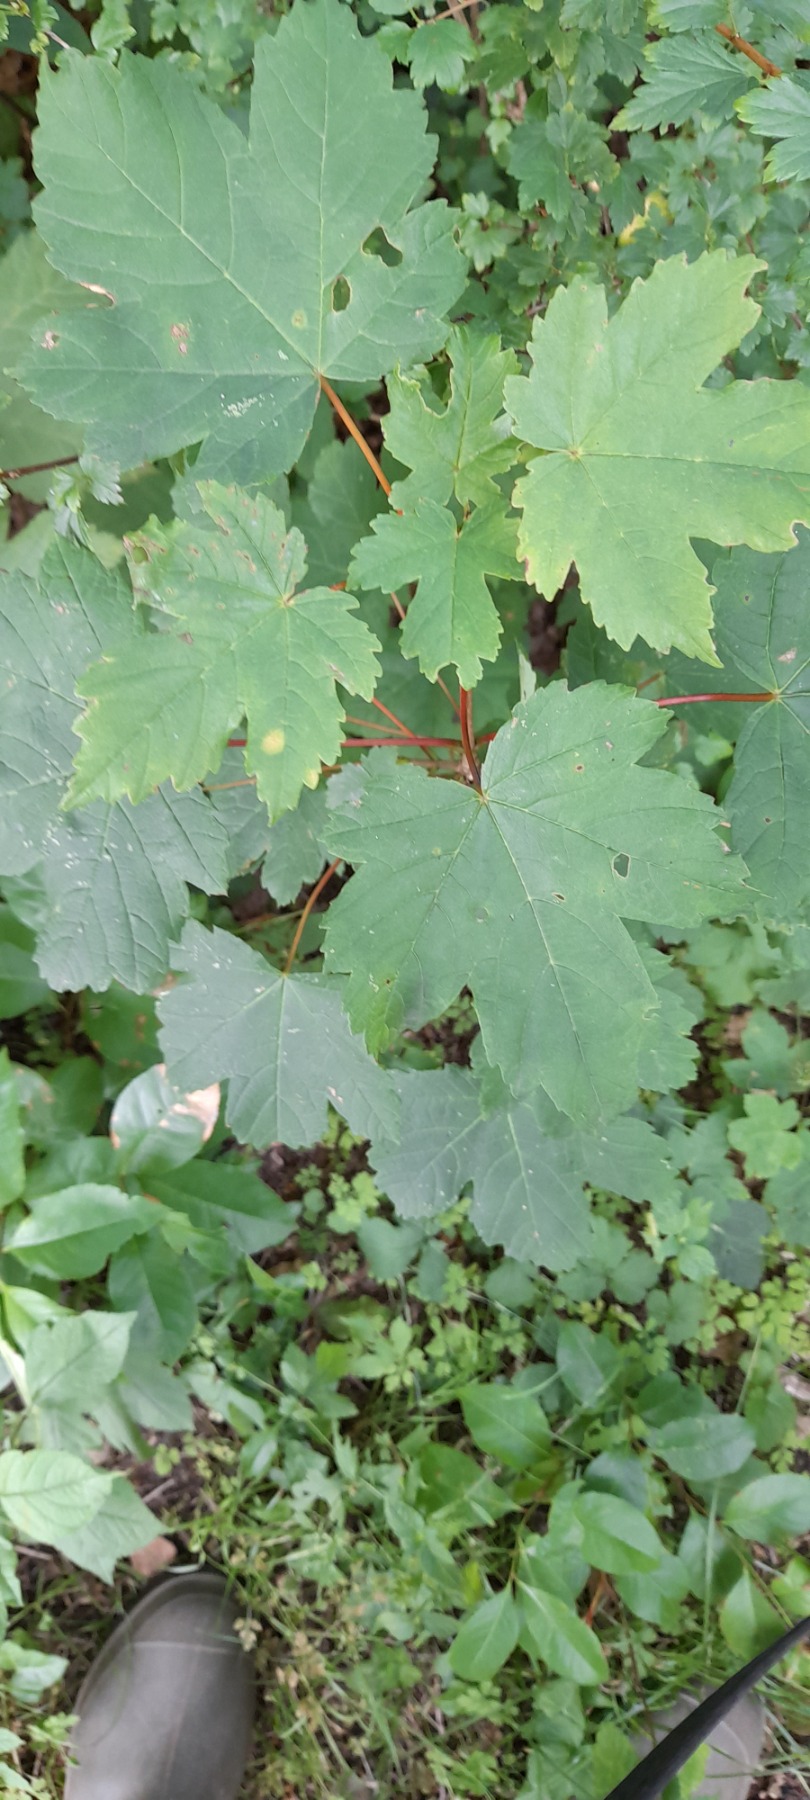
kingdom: Plantae
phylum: Tracheophyta
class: Magnoliopsida
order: Sapindales
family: Sapindaceae
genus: Acer
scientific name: Acer pseudoplatanus
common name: Ahorn
